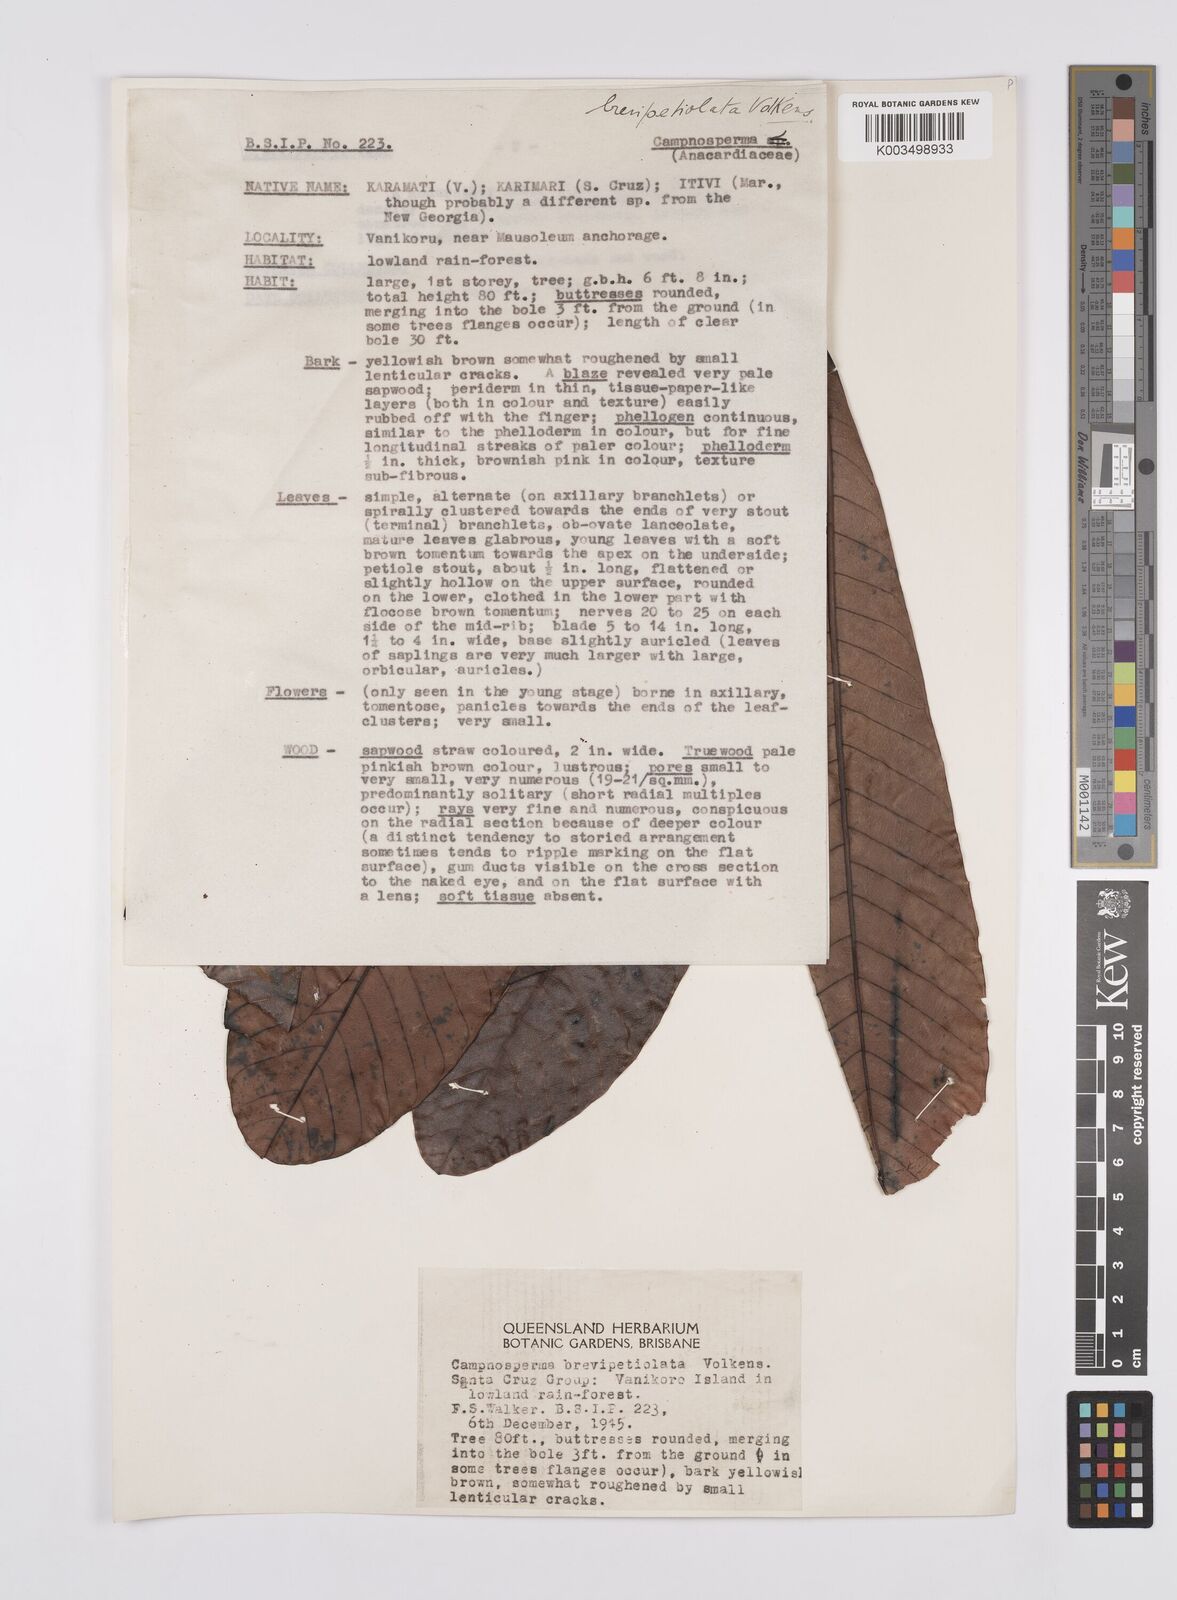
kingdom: Plantae
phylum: Tracheophyta
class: Magnoliopsida
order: Sapindales
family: Anacardiaceae
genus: Campnosperma
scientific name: Campnosperma brevipetiolatum
